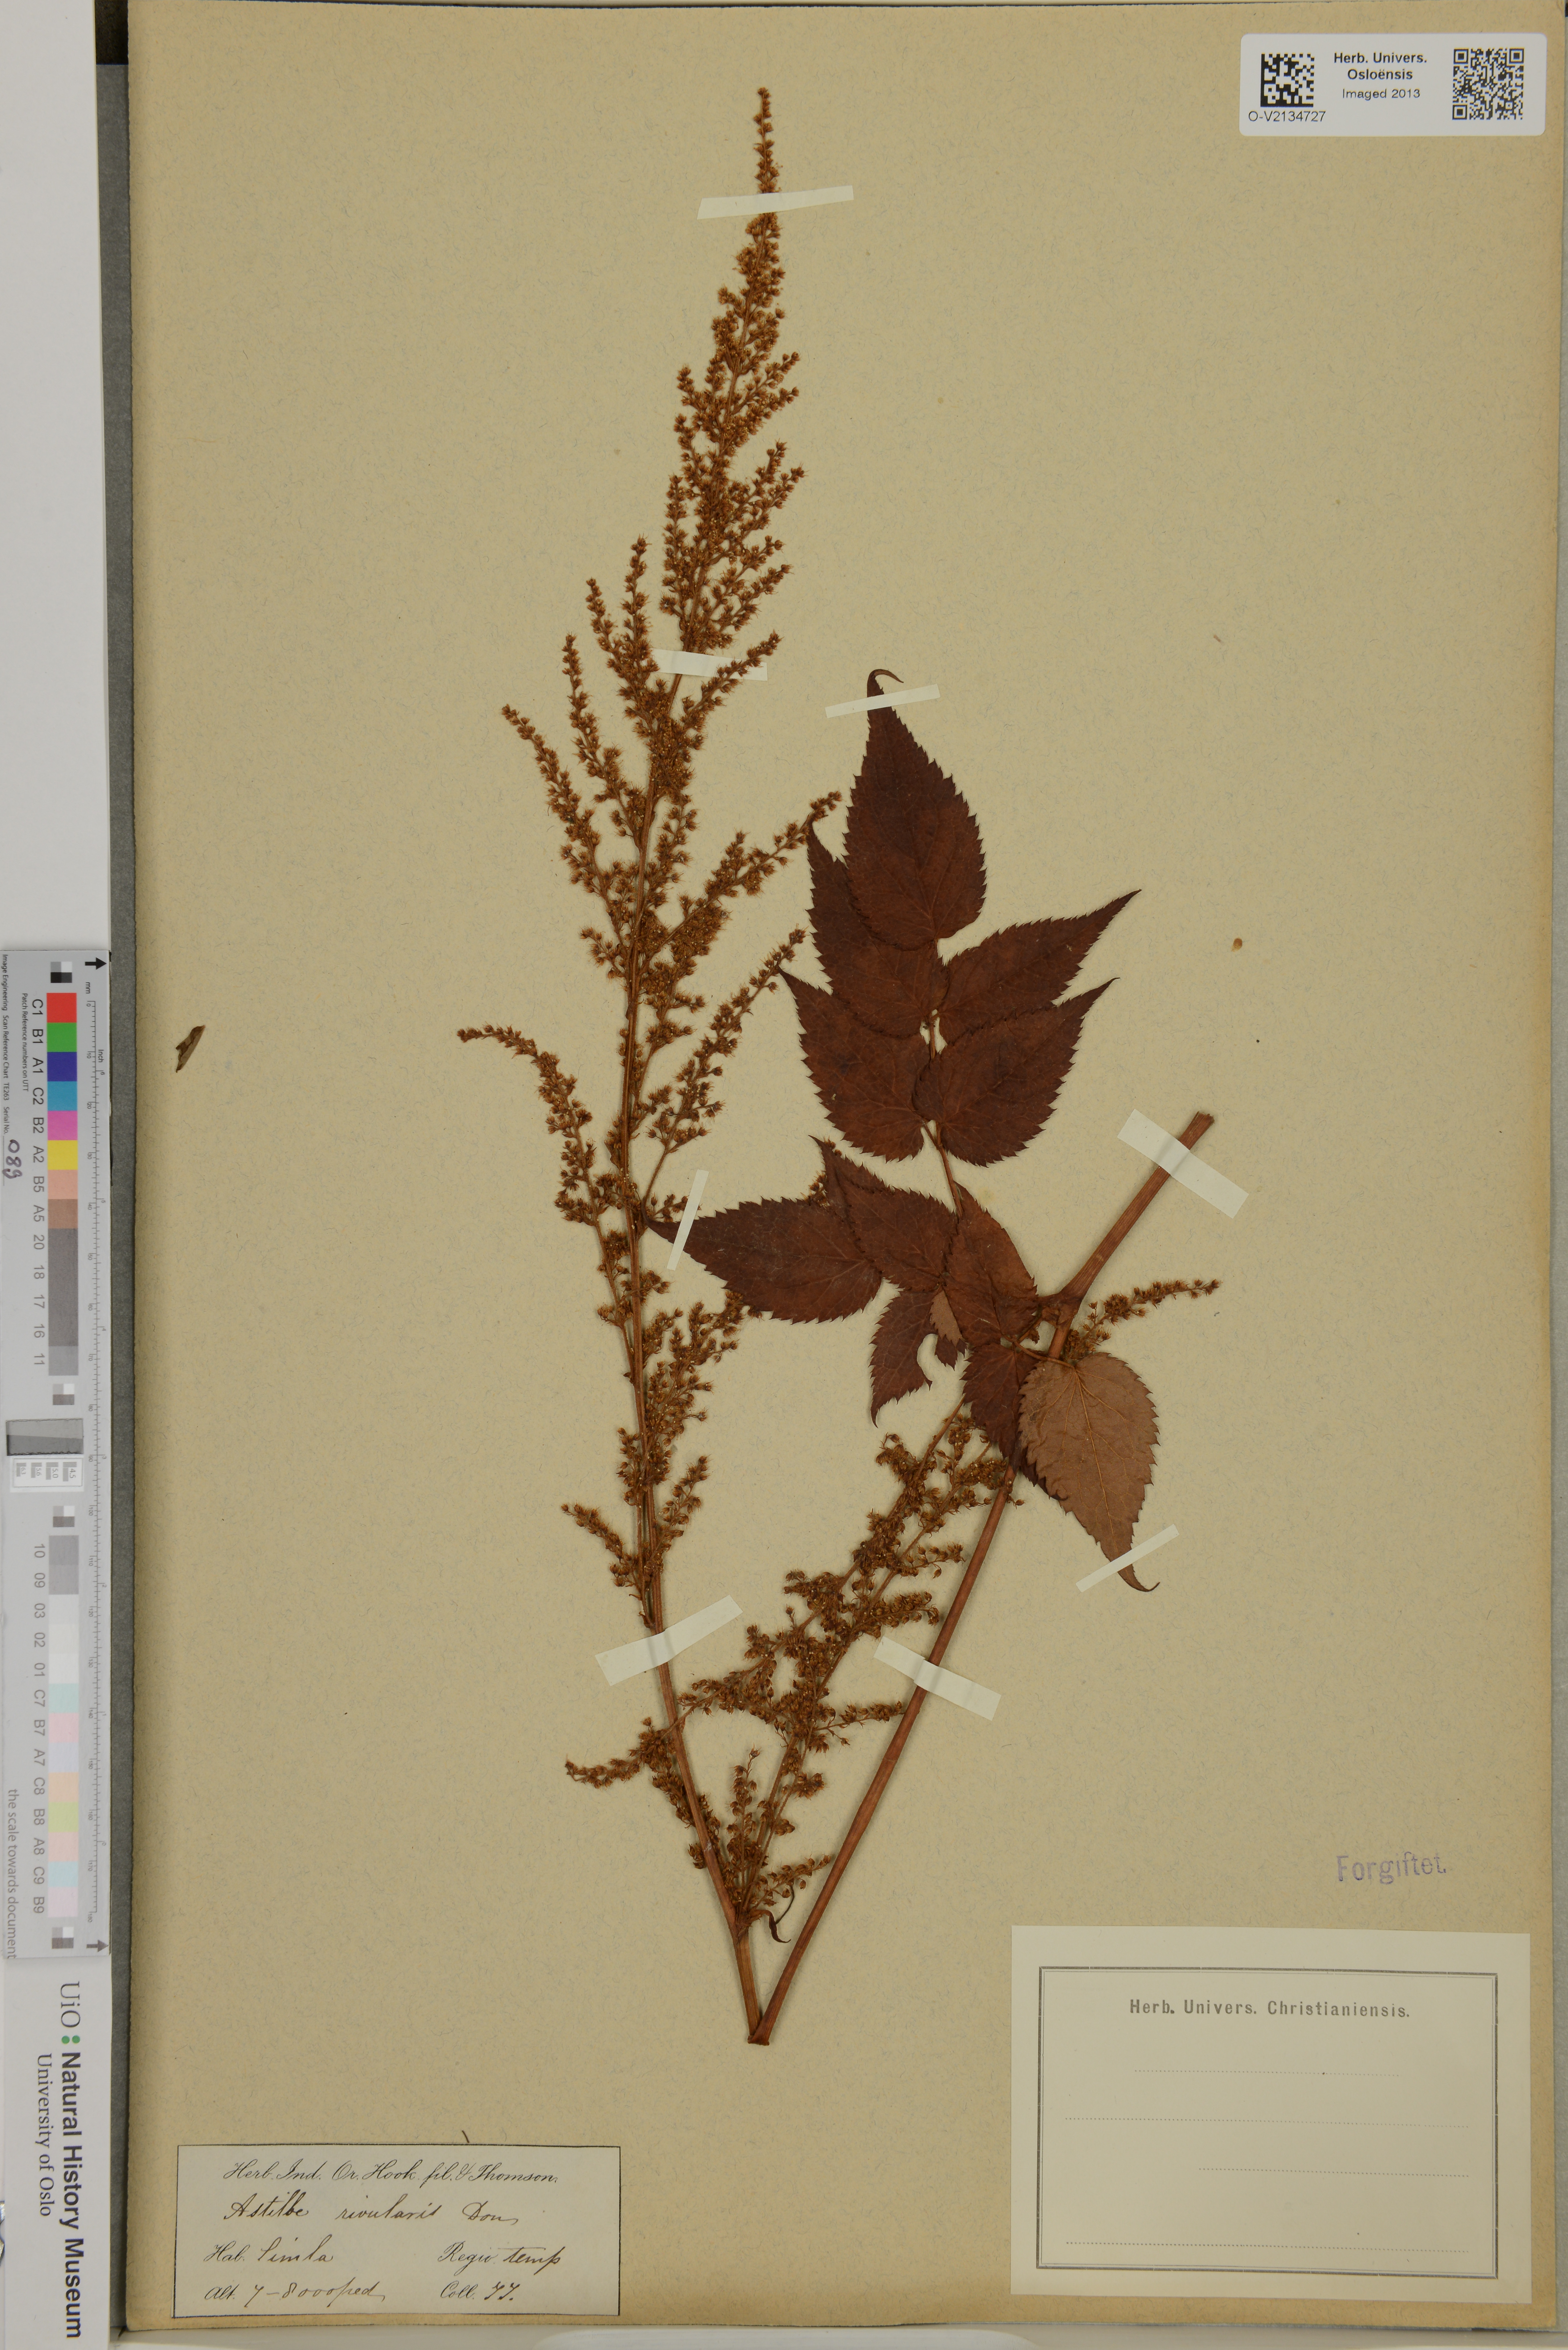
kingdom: Plantae
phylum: Tracheophyta
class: Magnoliopsida
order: Saxifragales
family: Saxifragaceae
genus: Astilbe
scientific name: Astilbe rivularis
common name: Tall false-buck's-beard
